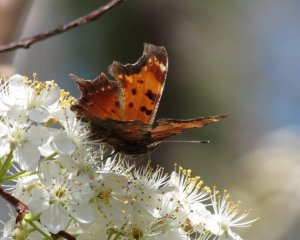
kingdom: Animalia
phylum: Arthropoda
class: Insecta
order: Lepidoptera
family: Nymphalidae
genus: Polygonia
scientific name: Polygonia progne
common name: Gray Comma
